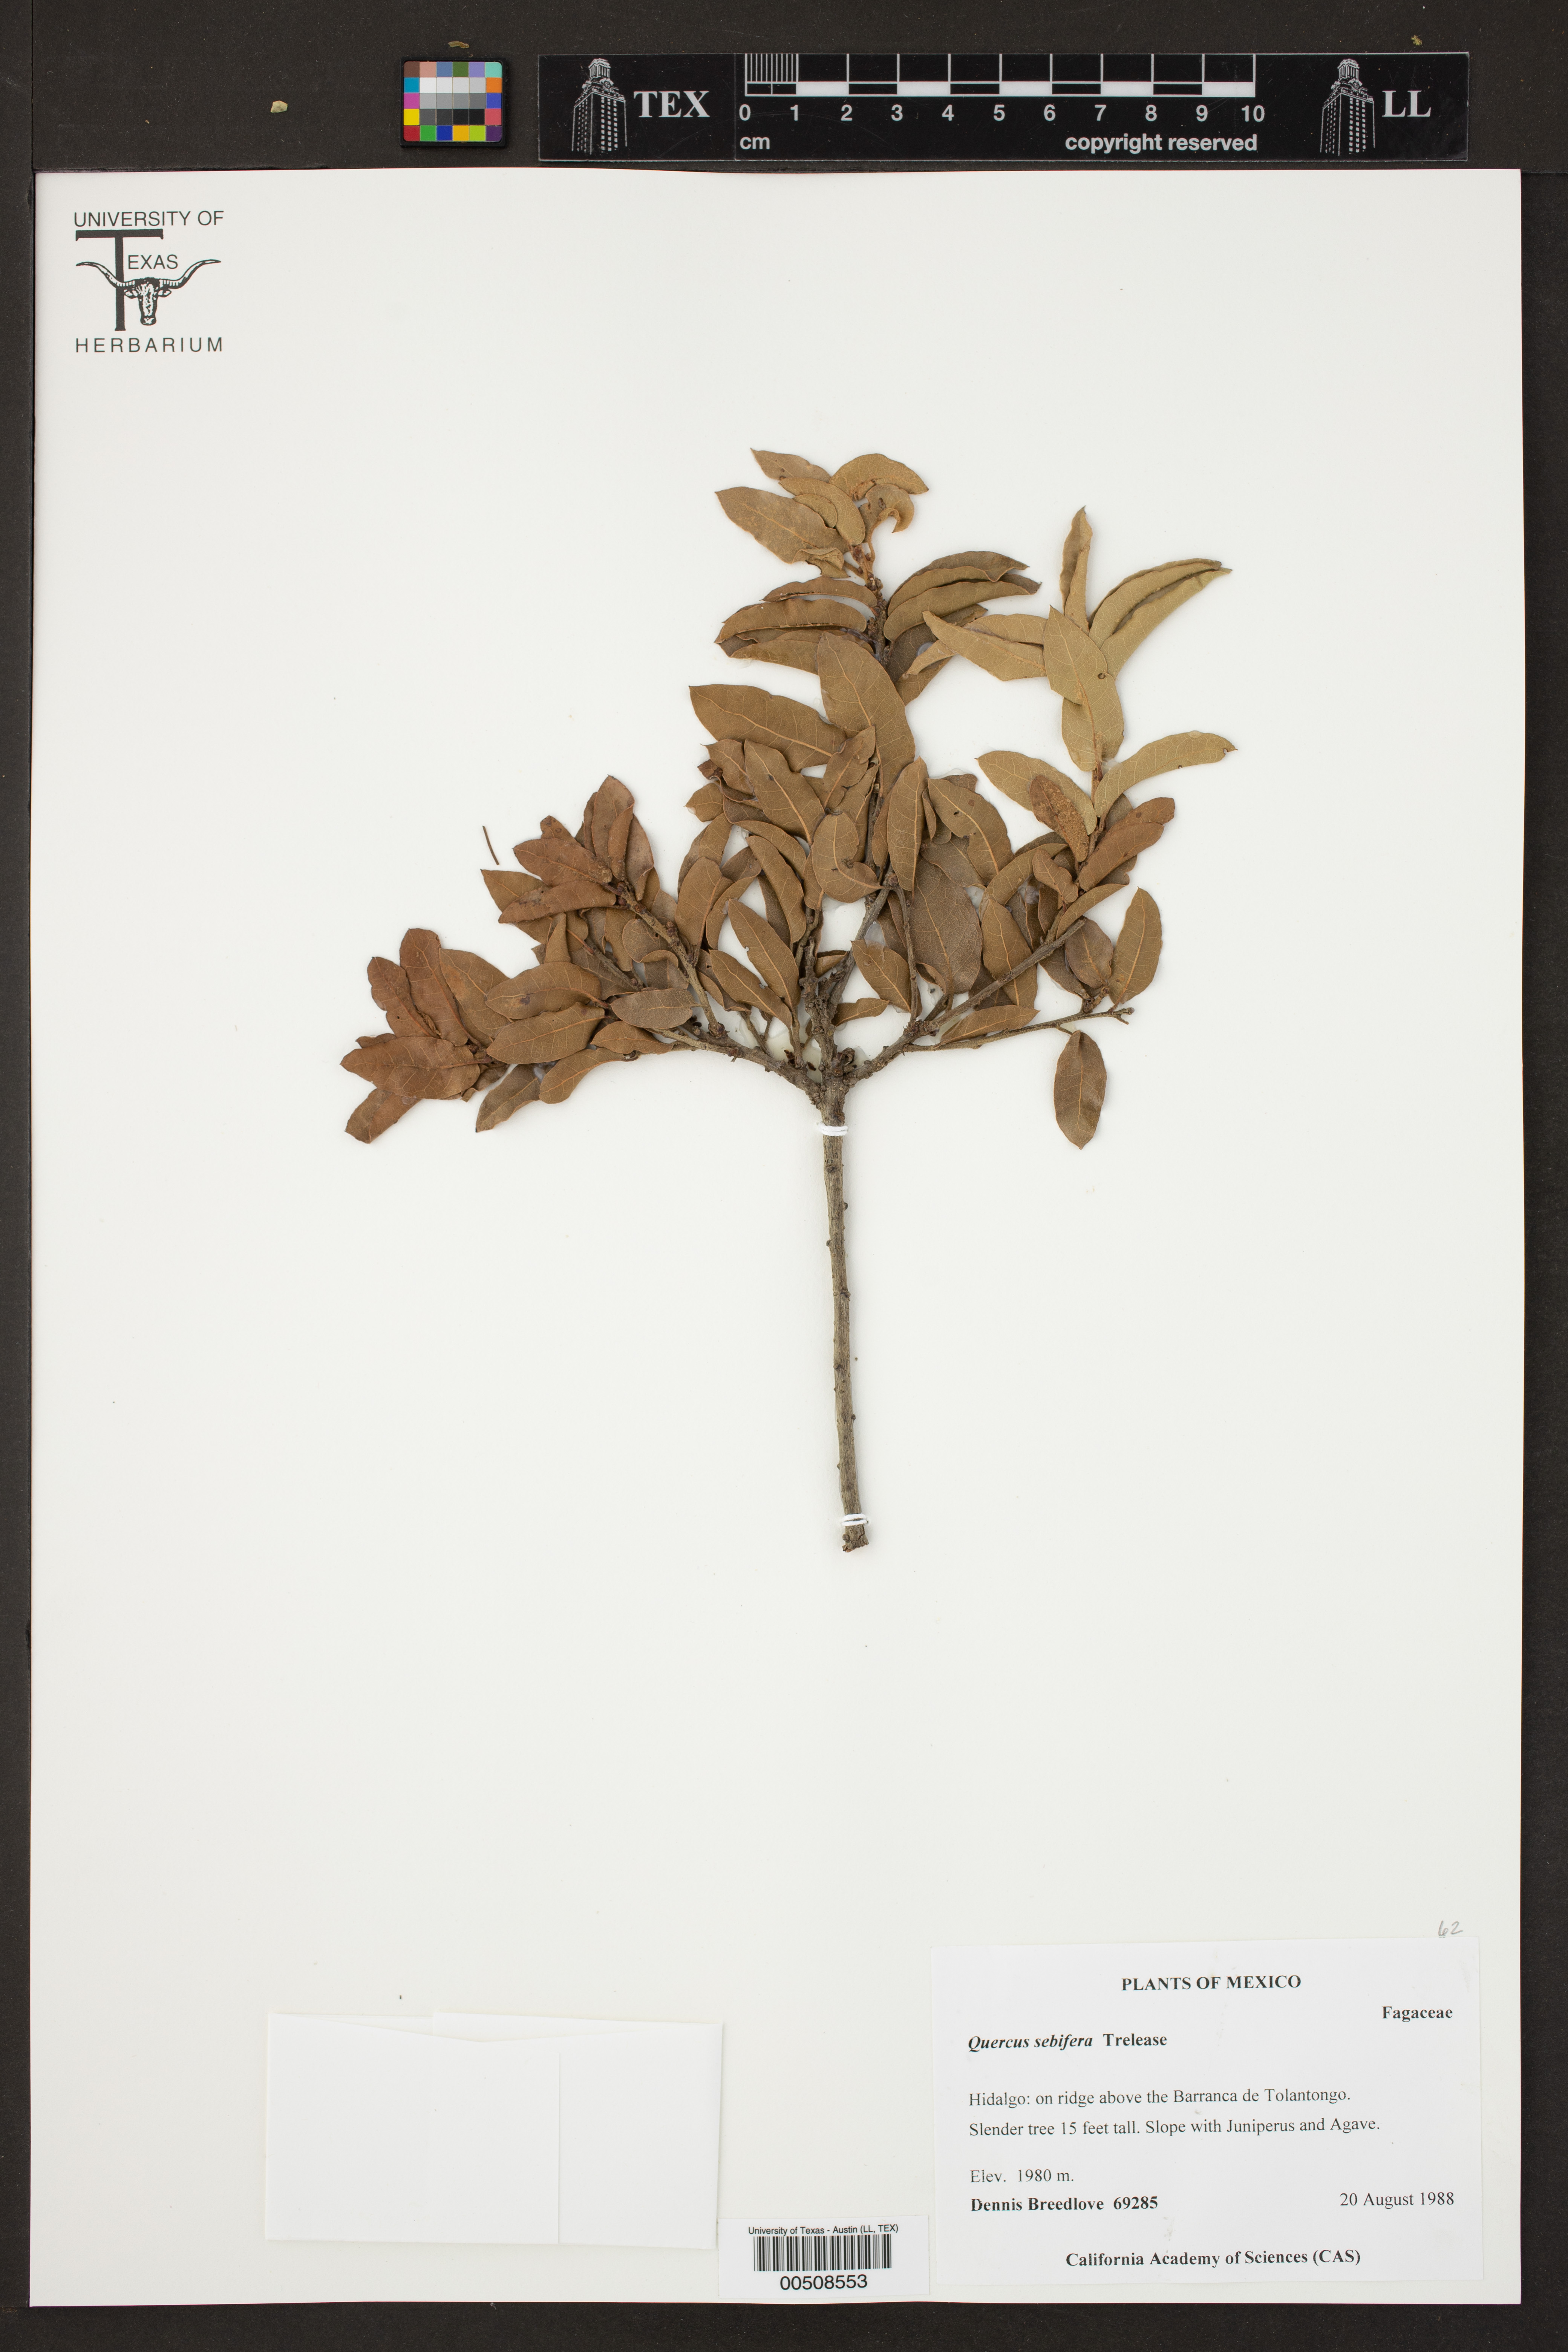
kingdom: Plantae
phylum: Tracheophyta
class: Magnoliopsida
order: Fagales
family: Fagaceae
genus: Quercus
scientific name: Quercus sebifera
